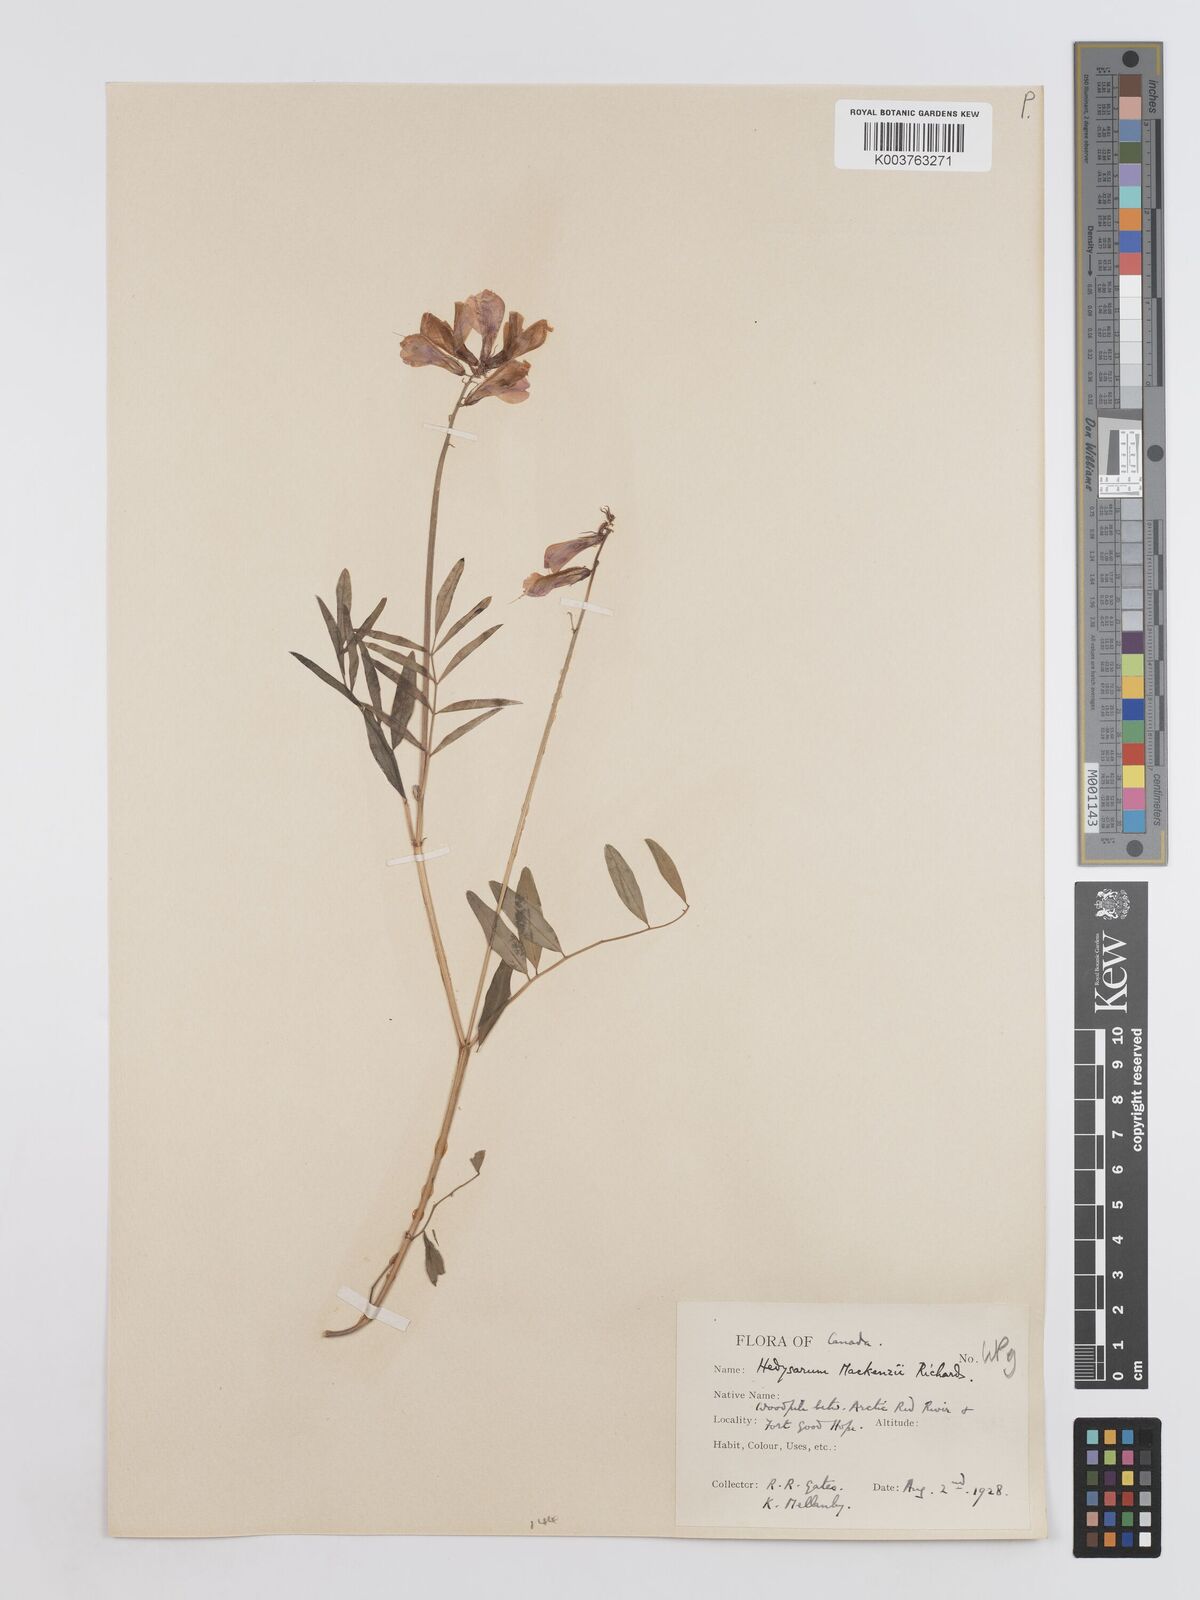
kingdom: Plantae
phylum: Tracheophyta
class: Magnoliopsida
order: Fabales
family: Fabaceae
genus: Hedysarum
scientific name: Hedysarum boreale
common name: Northern sweet-vetch
